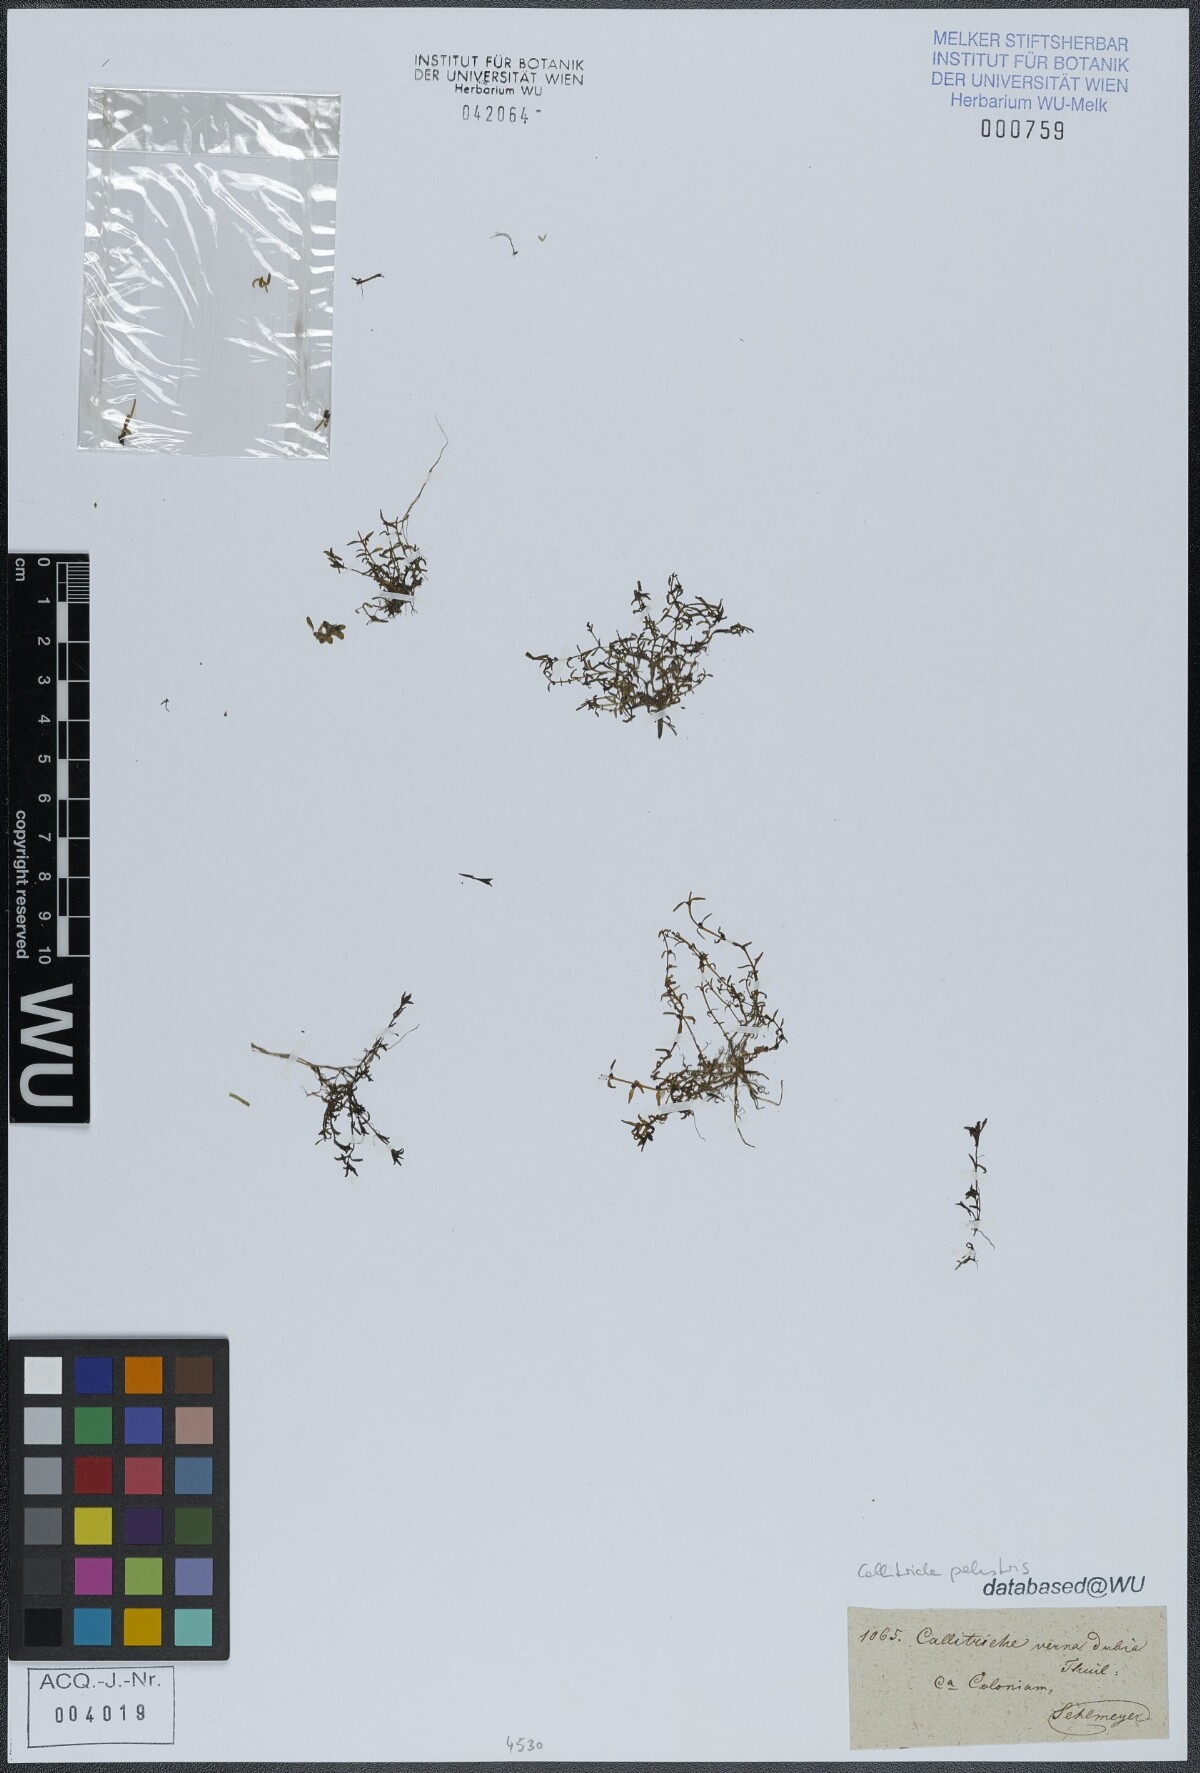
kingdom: Plantae
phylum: Tracheophyta
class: Magnoliopsida
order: Lamiales
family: Plantaginaceae
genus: Callitriche
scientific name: Callitriche palustris
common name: Spring water-starwort
